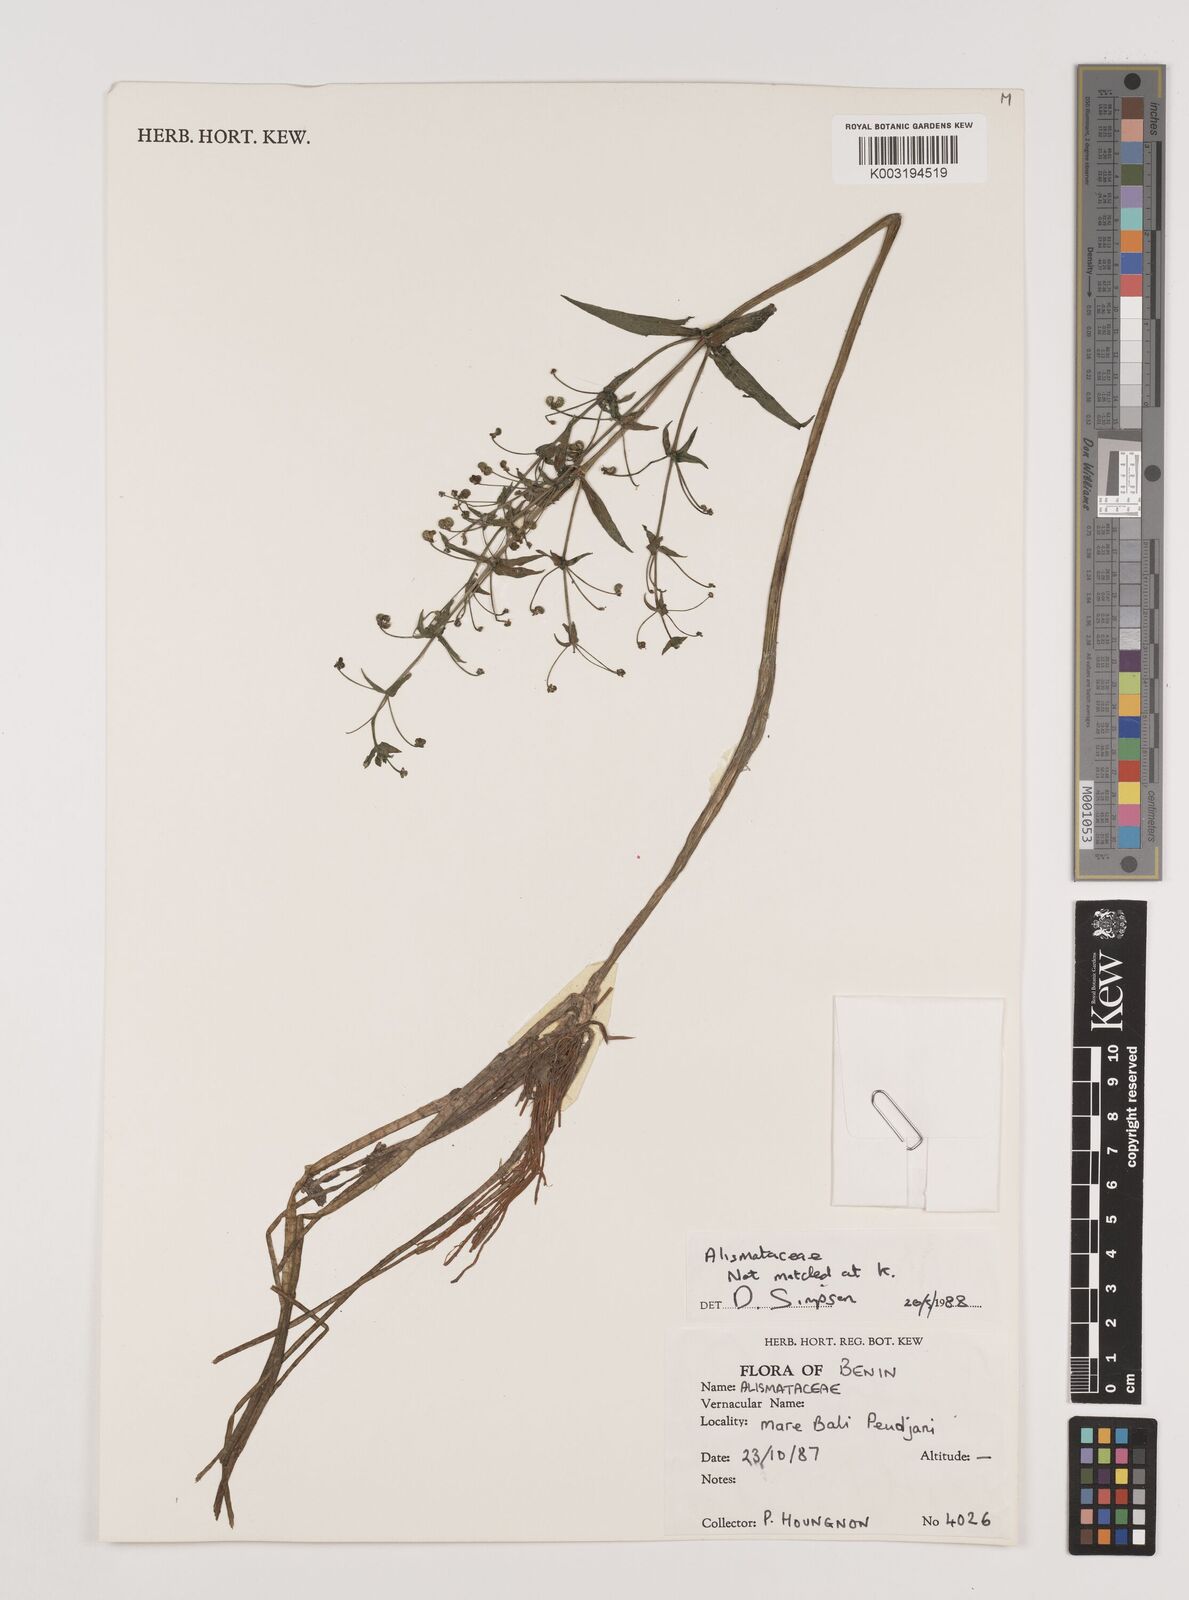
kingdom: Plantae
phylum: Tracheophyta
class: Liliopsida
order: Alismatales
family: Alismataceae
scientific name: Alismataceae
